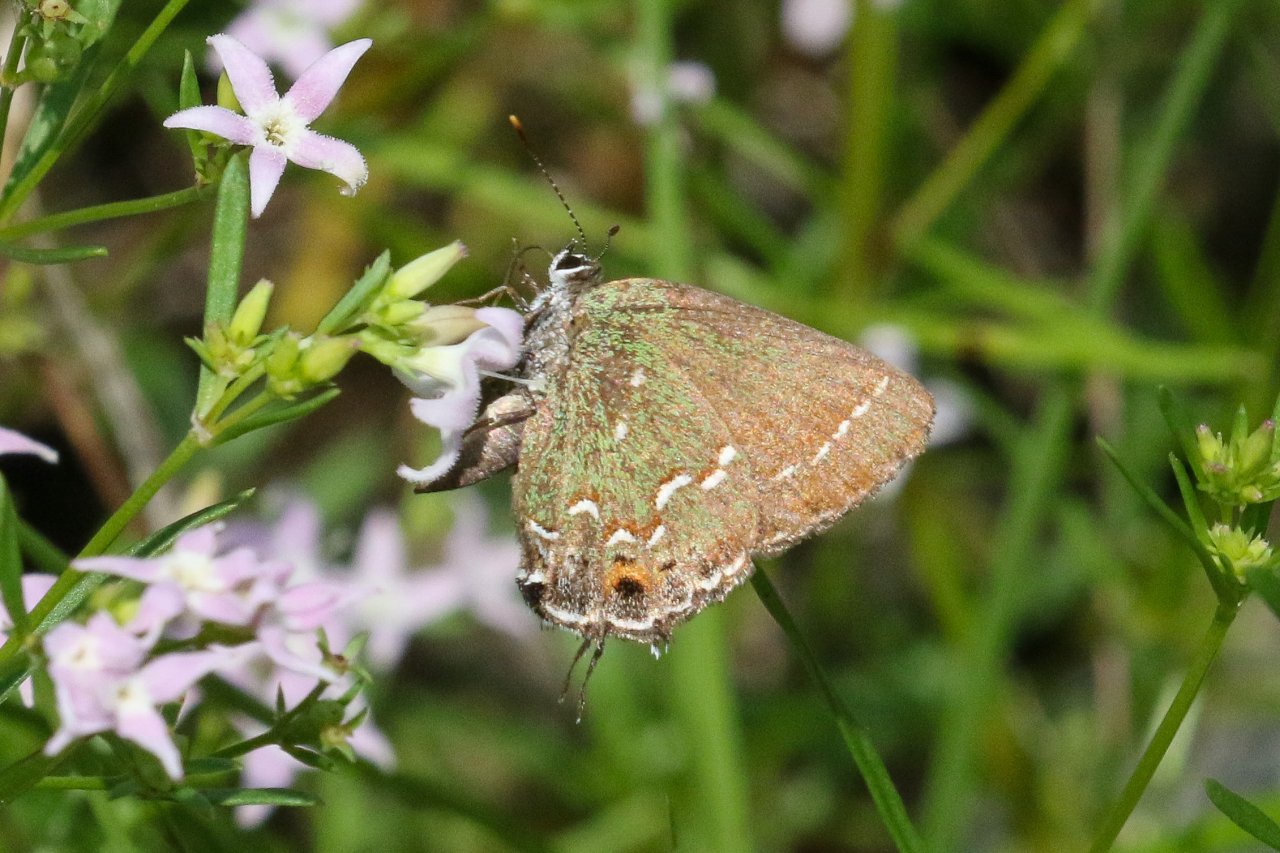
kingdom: Animalia
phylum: Arthropoda
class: Insecta
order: Lepidoptera
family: Lycaenidae
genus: Mitoura
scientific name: Mitoura gryneus
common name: Juniper Hairstreak
